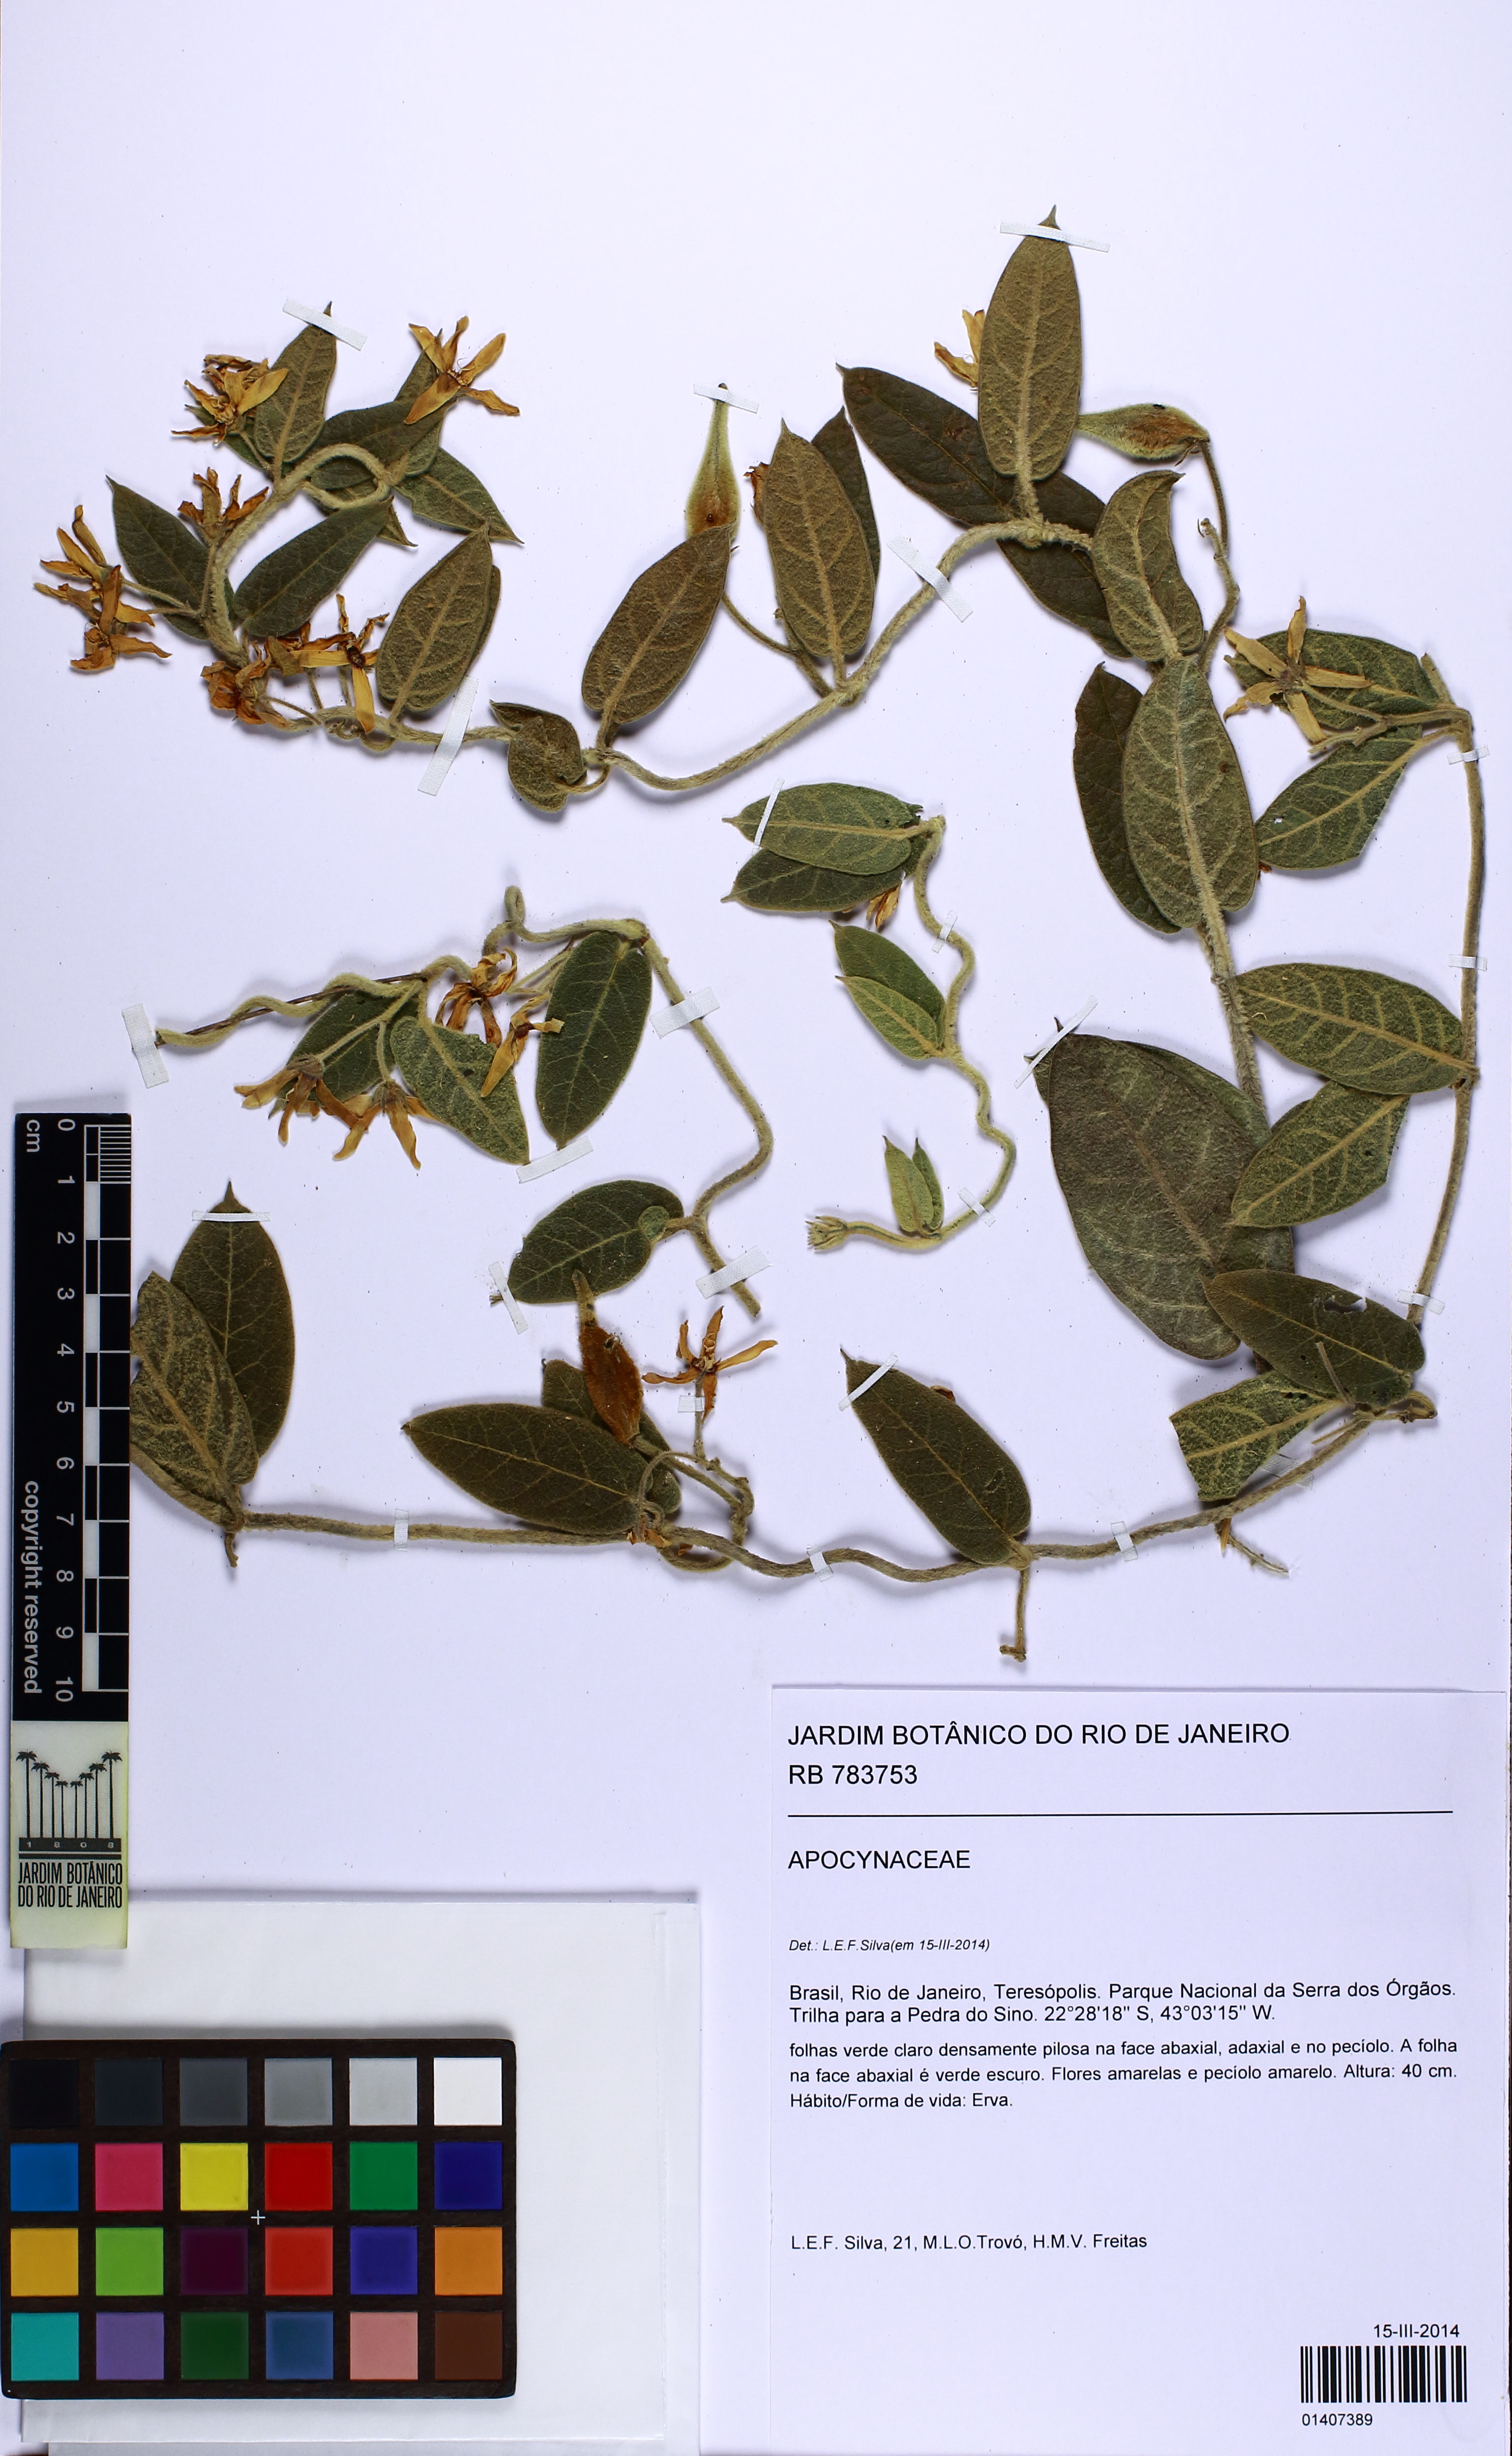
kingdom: Plantae
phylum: Tracheophyta
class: Magnoliopsida
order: Gentianales
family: Apocynaceae
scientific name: Apocynaceae
